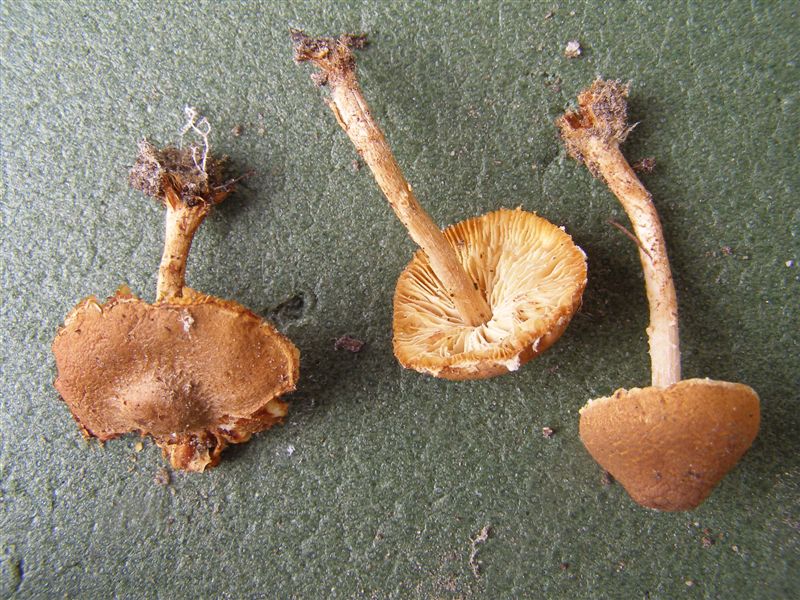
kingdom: Fungi
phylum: Basidiomycota
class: Agaricomycetes
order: Agaricales
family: Agaricaceae
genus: Lepiota
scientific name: Lepiota castanea
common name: ræverød parasolhat
